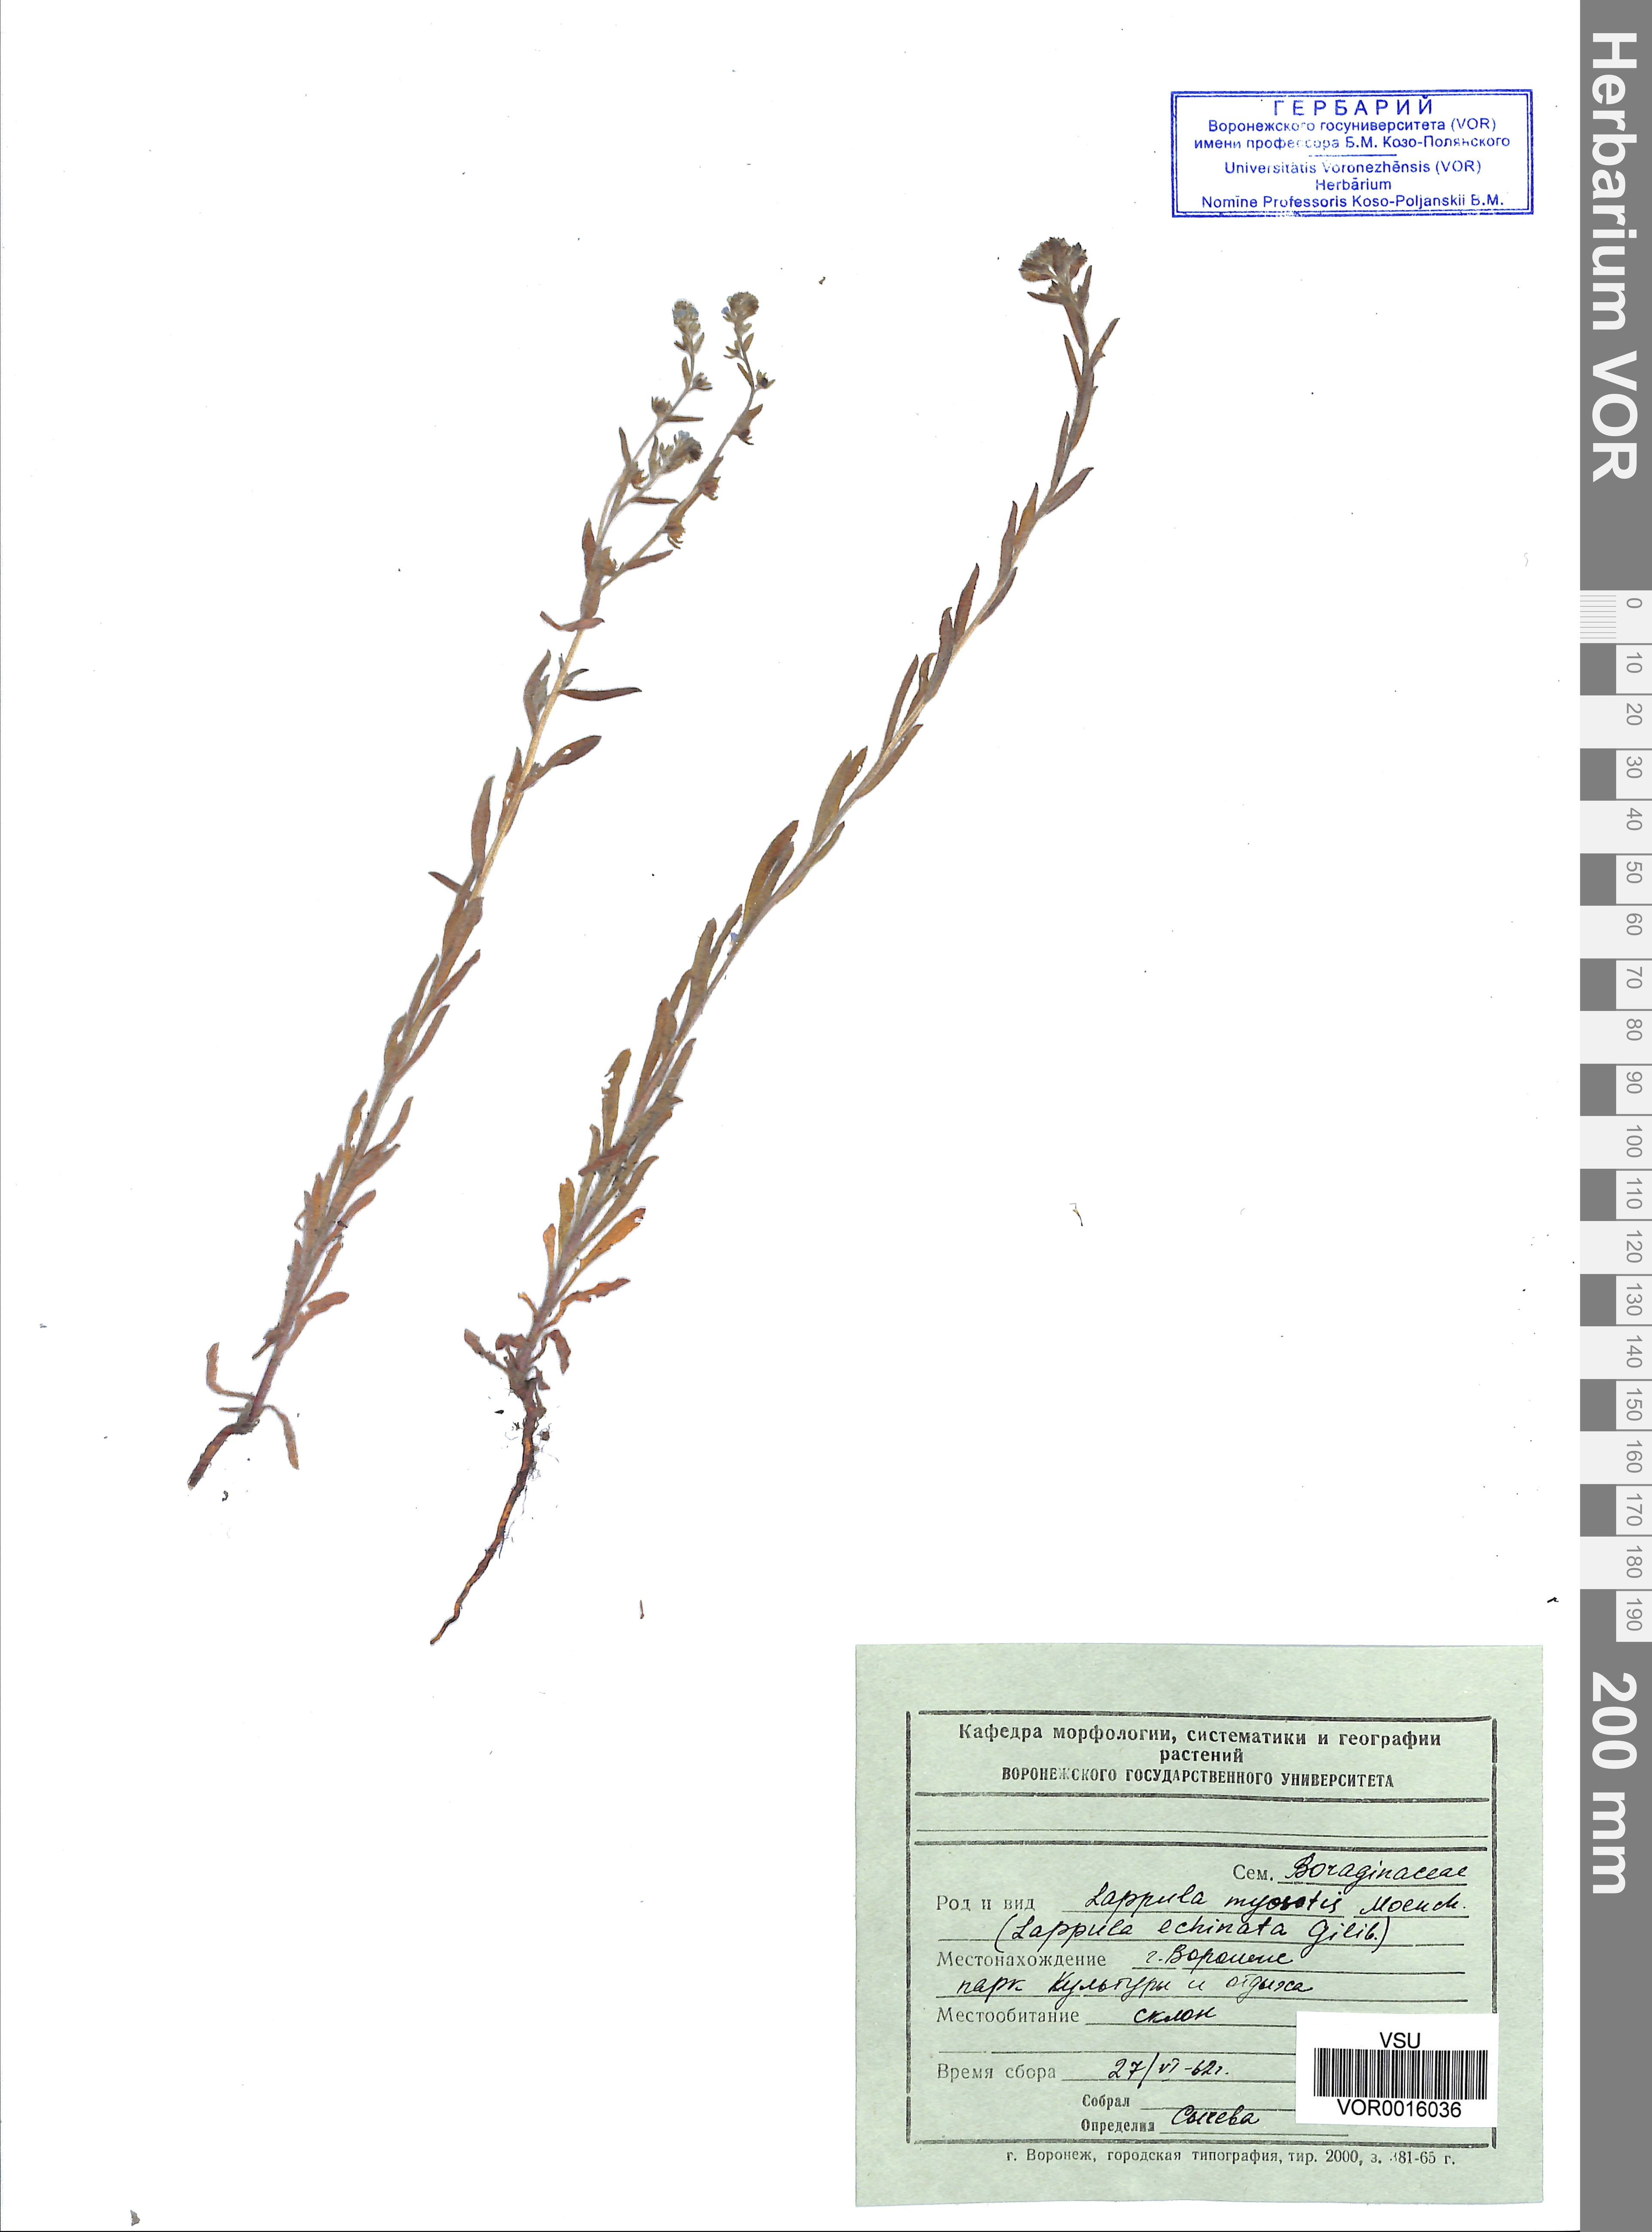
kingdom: Plantae
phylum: Tracheophyta
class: Magnoliopsida
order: Boraginales
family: Boraginaceae
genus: Lappula
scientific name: Lappula squarrosa
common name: European stickseed
